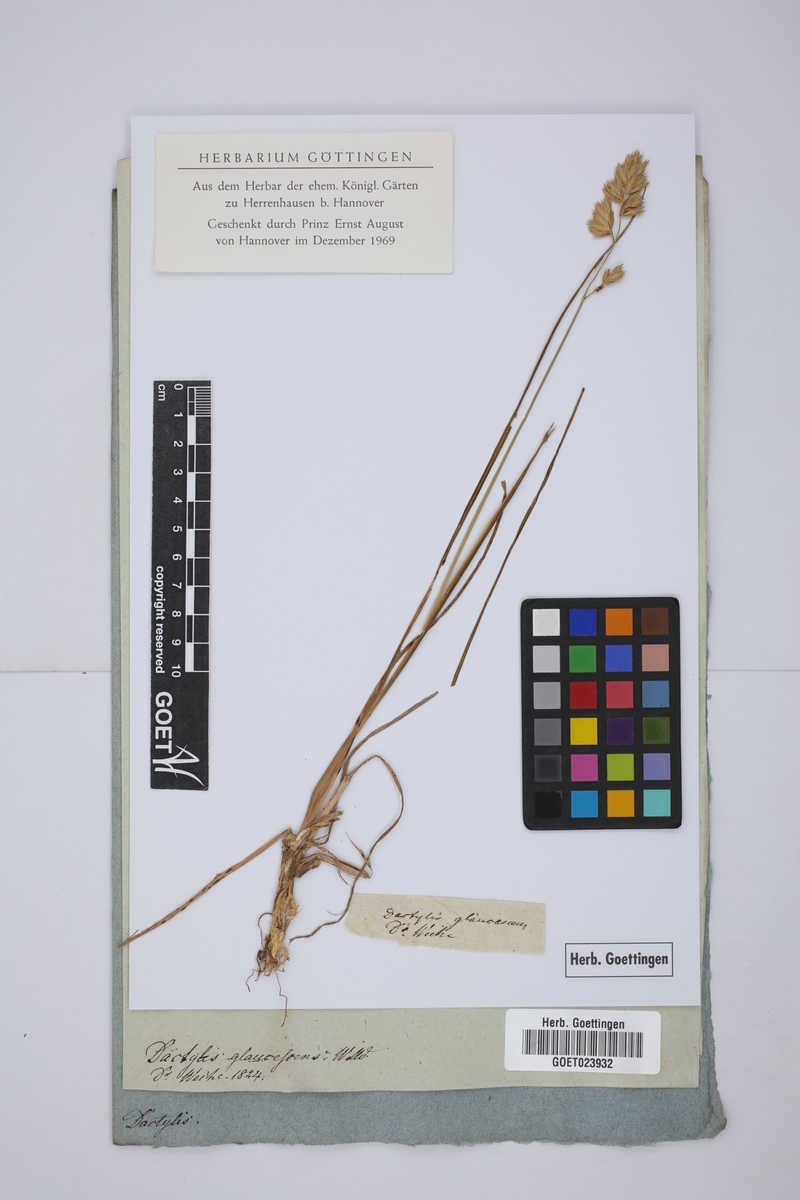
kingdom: Plantae
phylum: Tracheophyta
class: Liliopsida
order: Poales
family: Poaceae
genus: Dactylis
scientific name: Dactylis glomerata
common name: Orchardgrass
